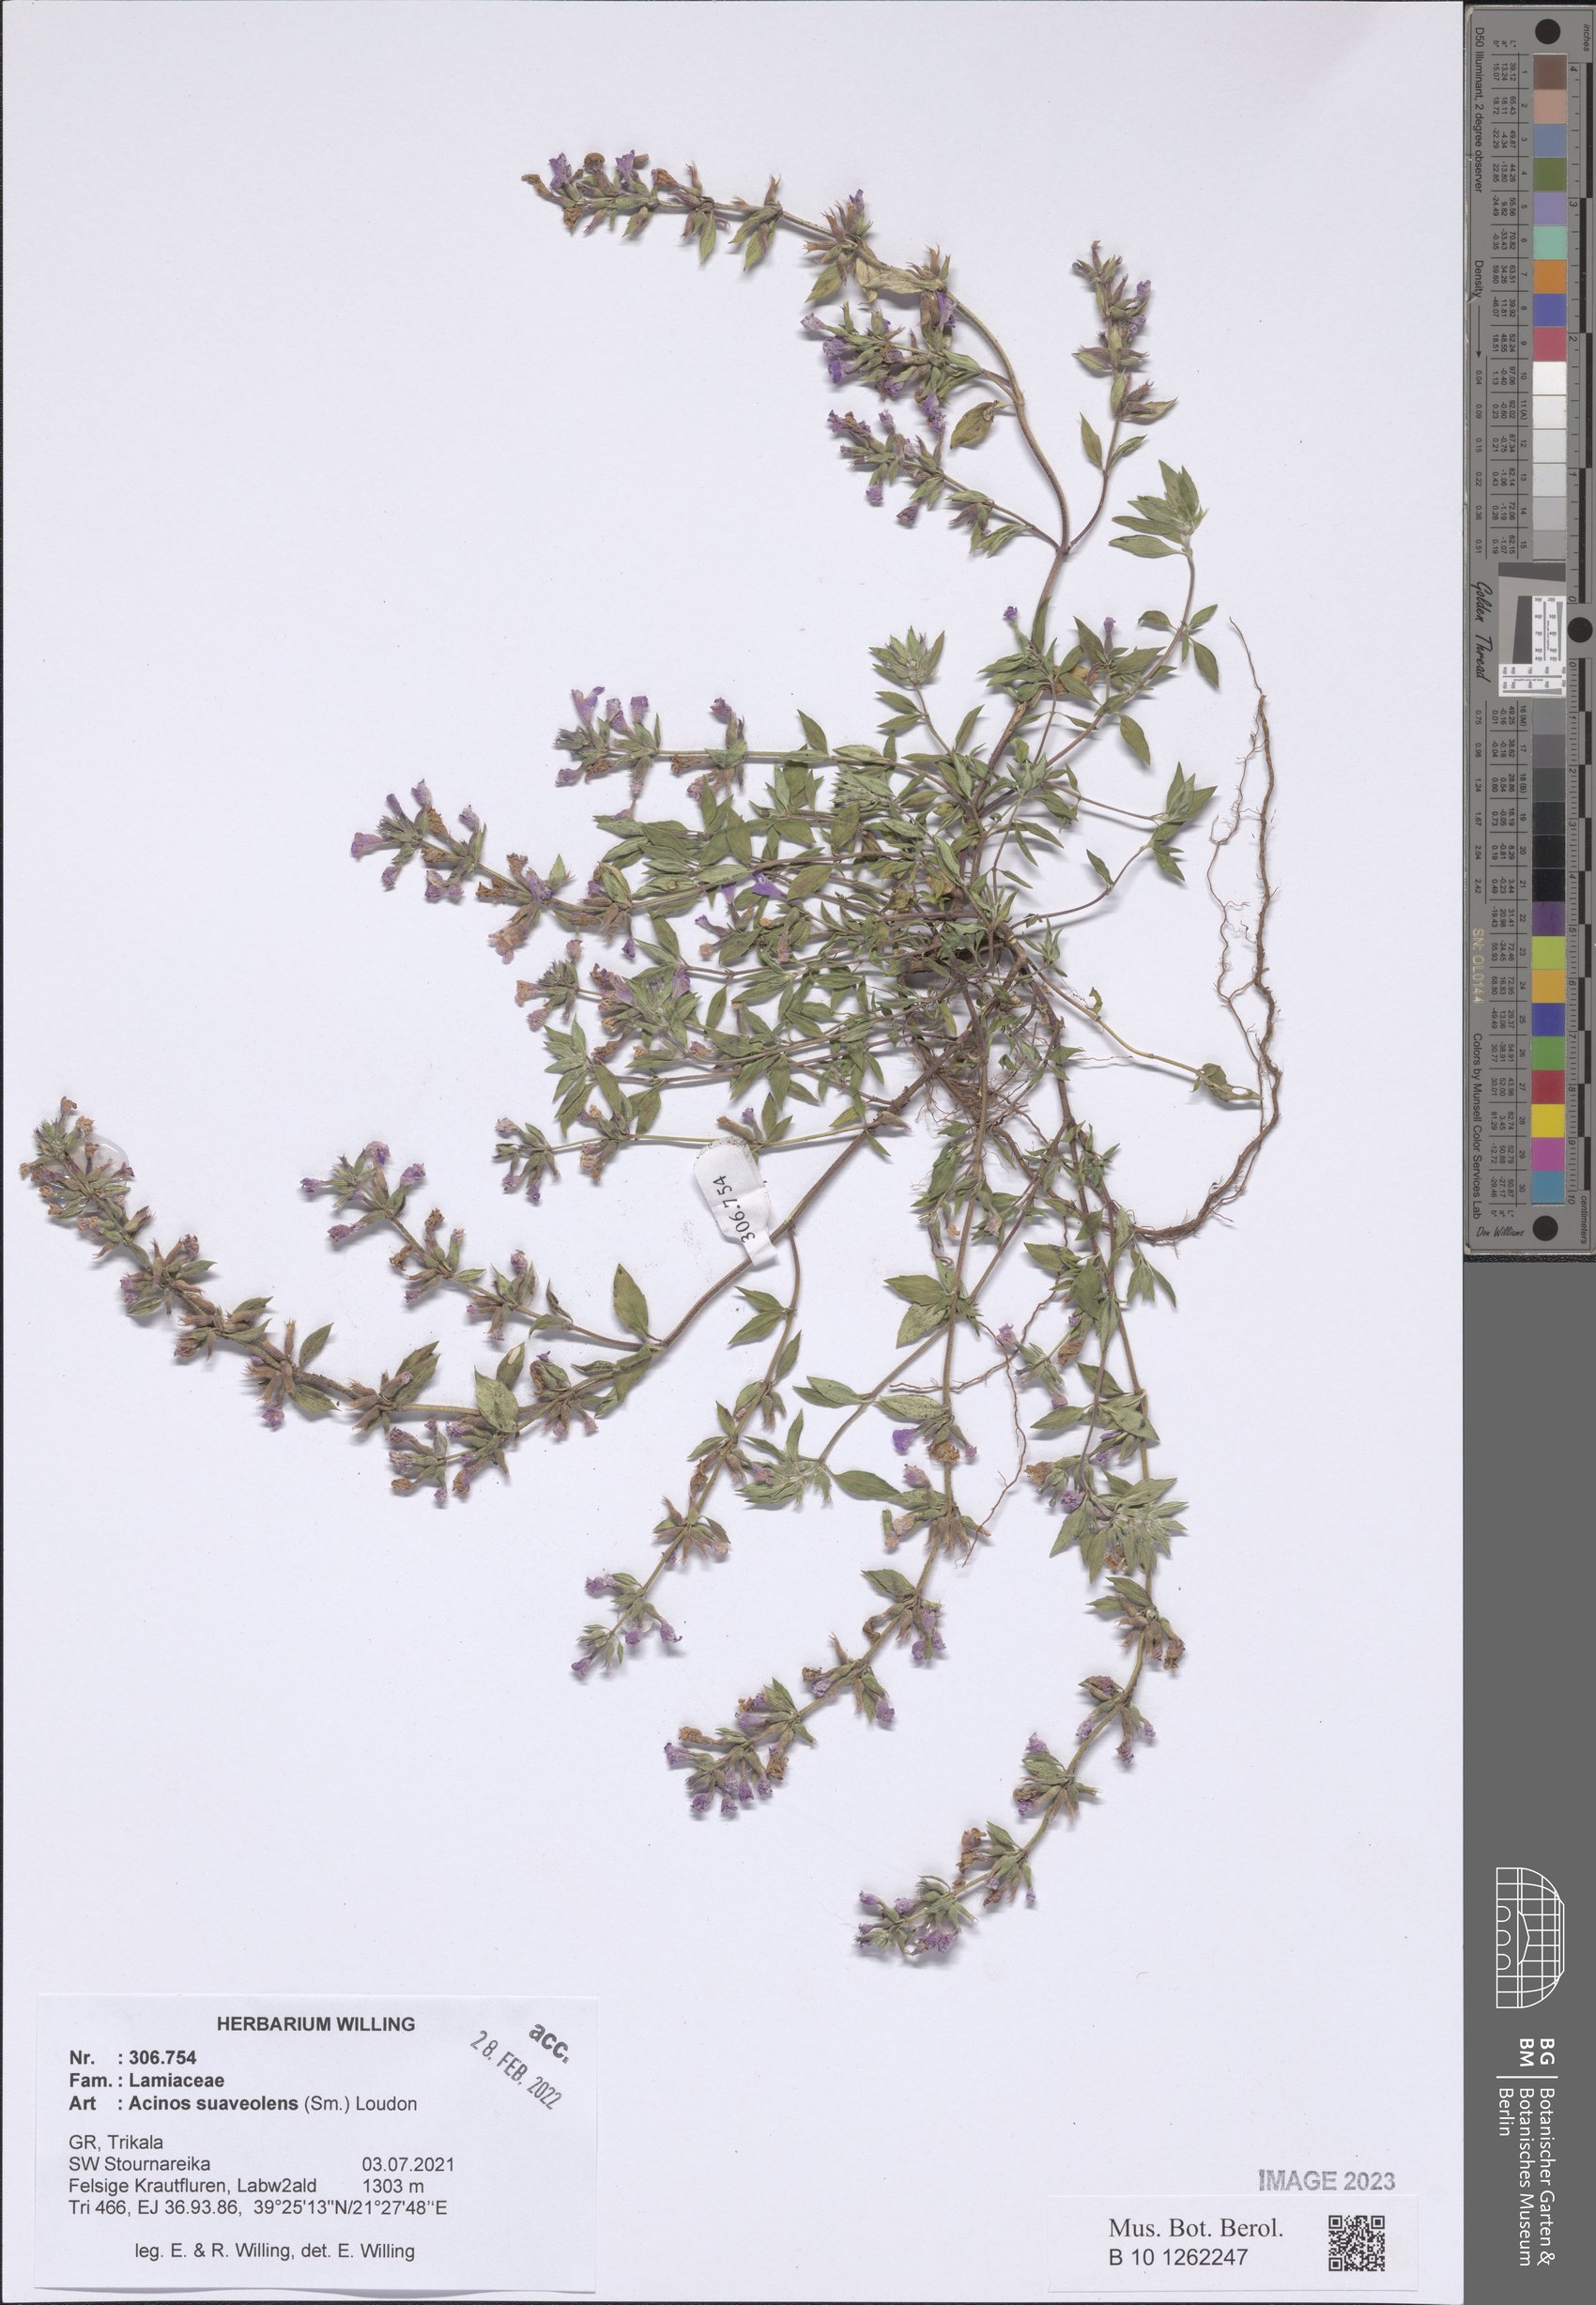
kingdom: Plantae
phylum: Tracheophyta
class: Magnoliopsida
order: Lamiales
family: Lamiaceae
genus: Clinopodium
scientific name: Clinopodium suaveolens
